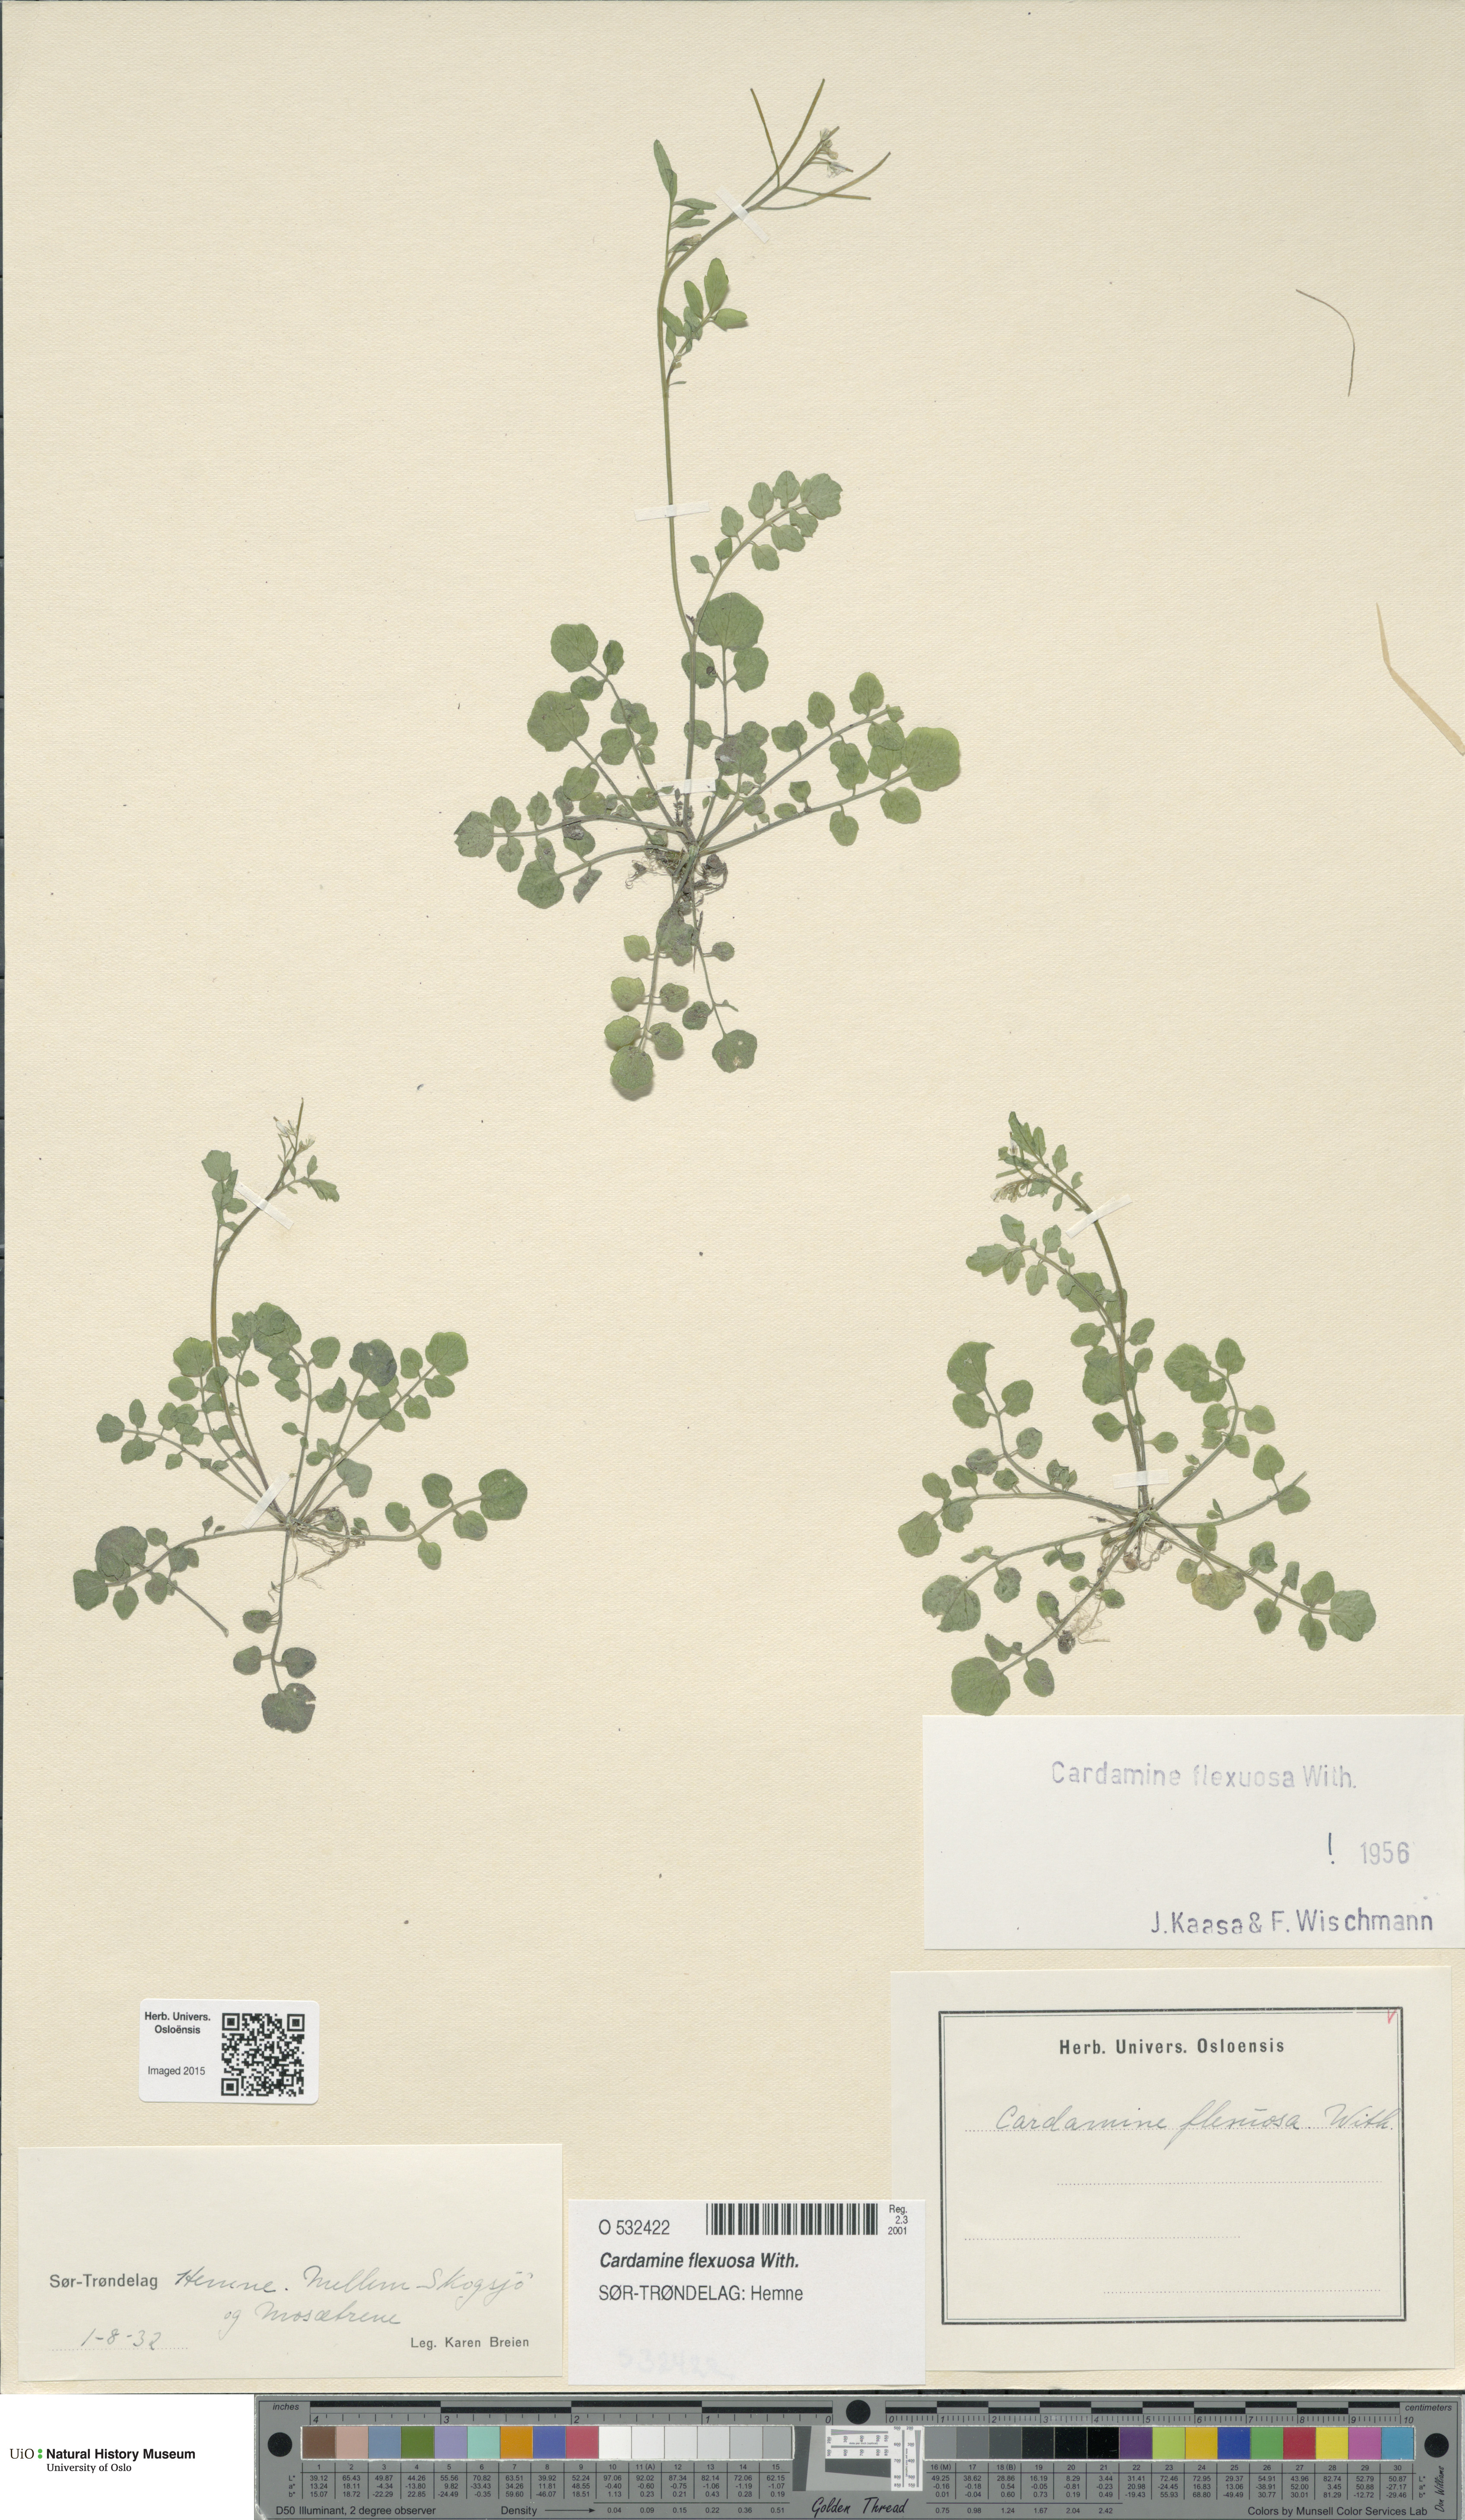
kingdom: Plantae
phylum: Tracheophyta
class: Magnoliopsida
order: Brassicales
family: Brassicaceae
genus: Cardamine
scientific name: Cardamine flexuosa
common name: Woodland bittercress
